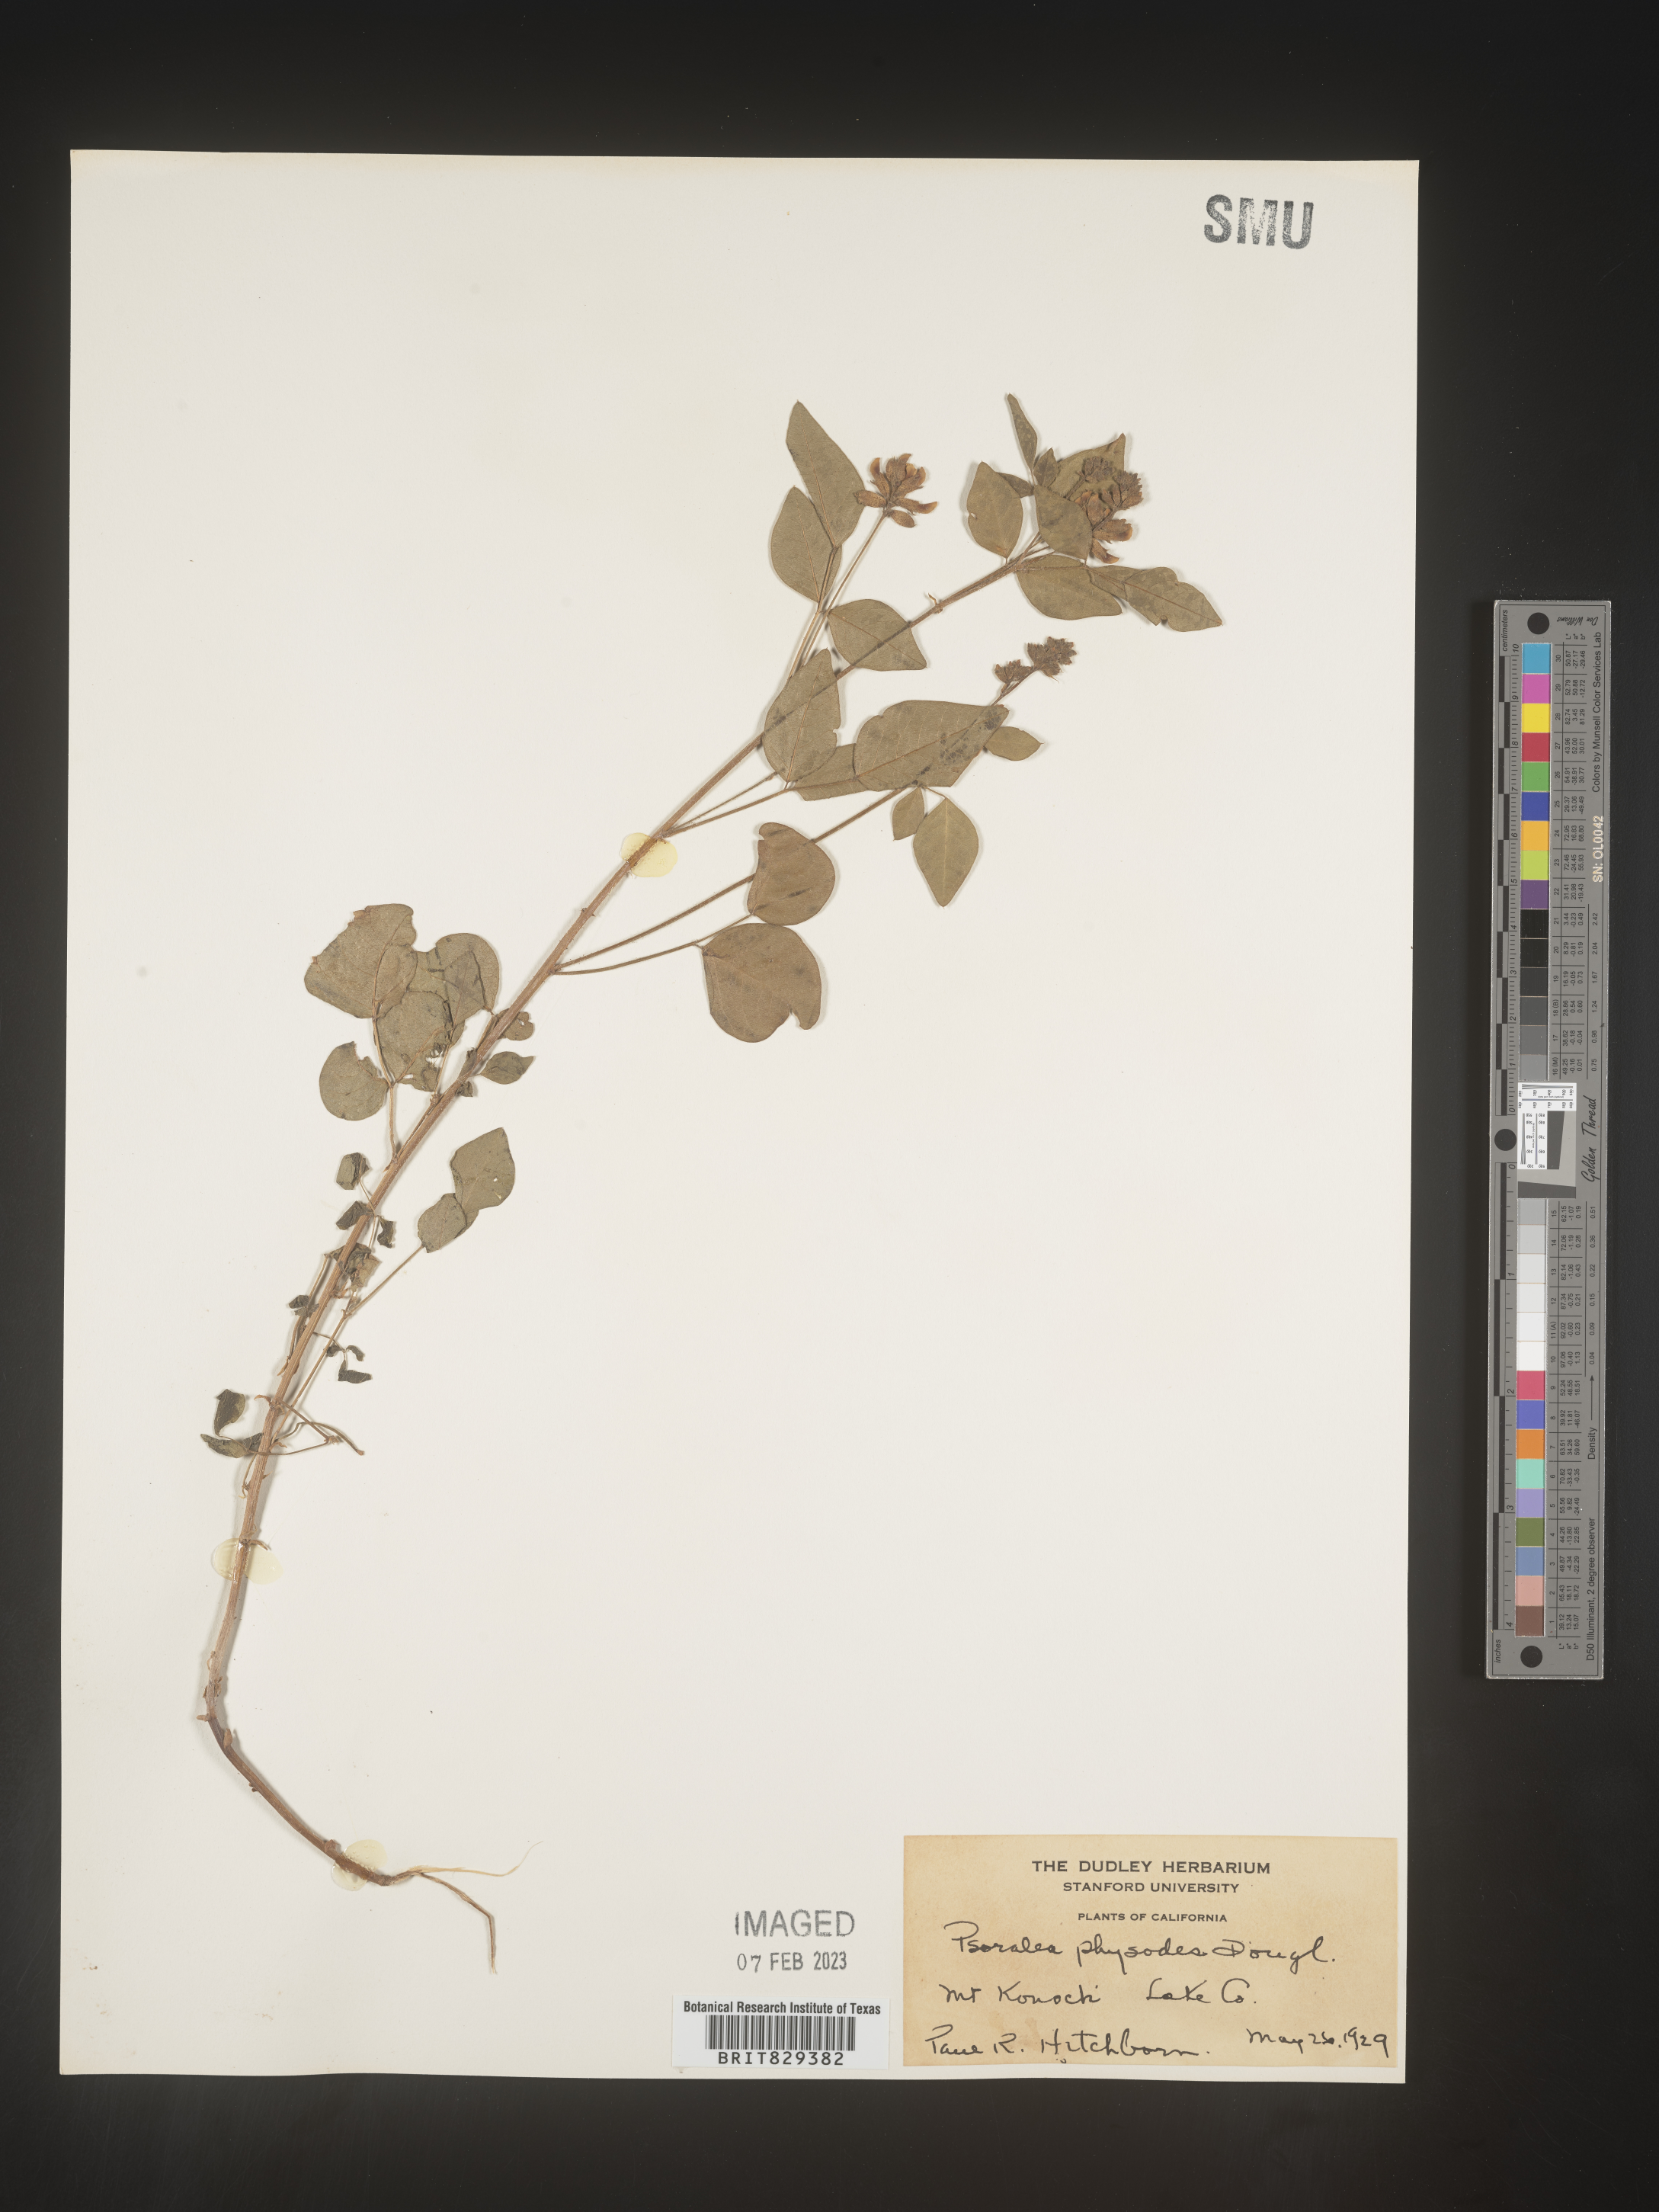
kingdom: Plantae
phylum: Tracheophyta
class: Magnoliopsida
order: Fabales
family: Fabaceae
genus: Psoralea
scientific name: Psoralea
